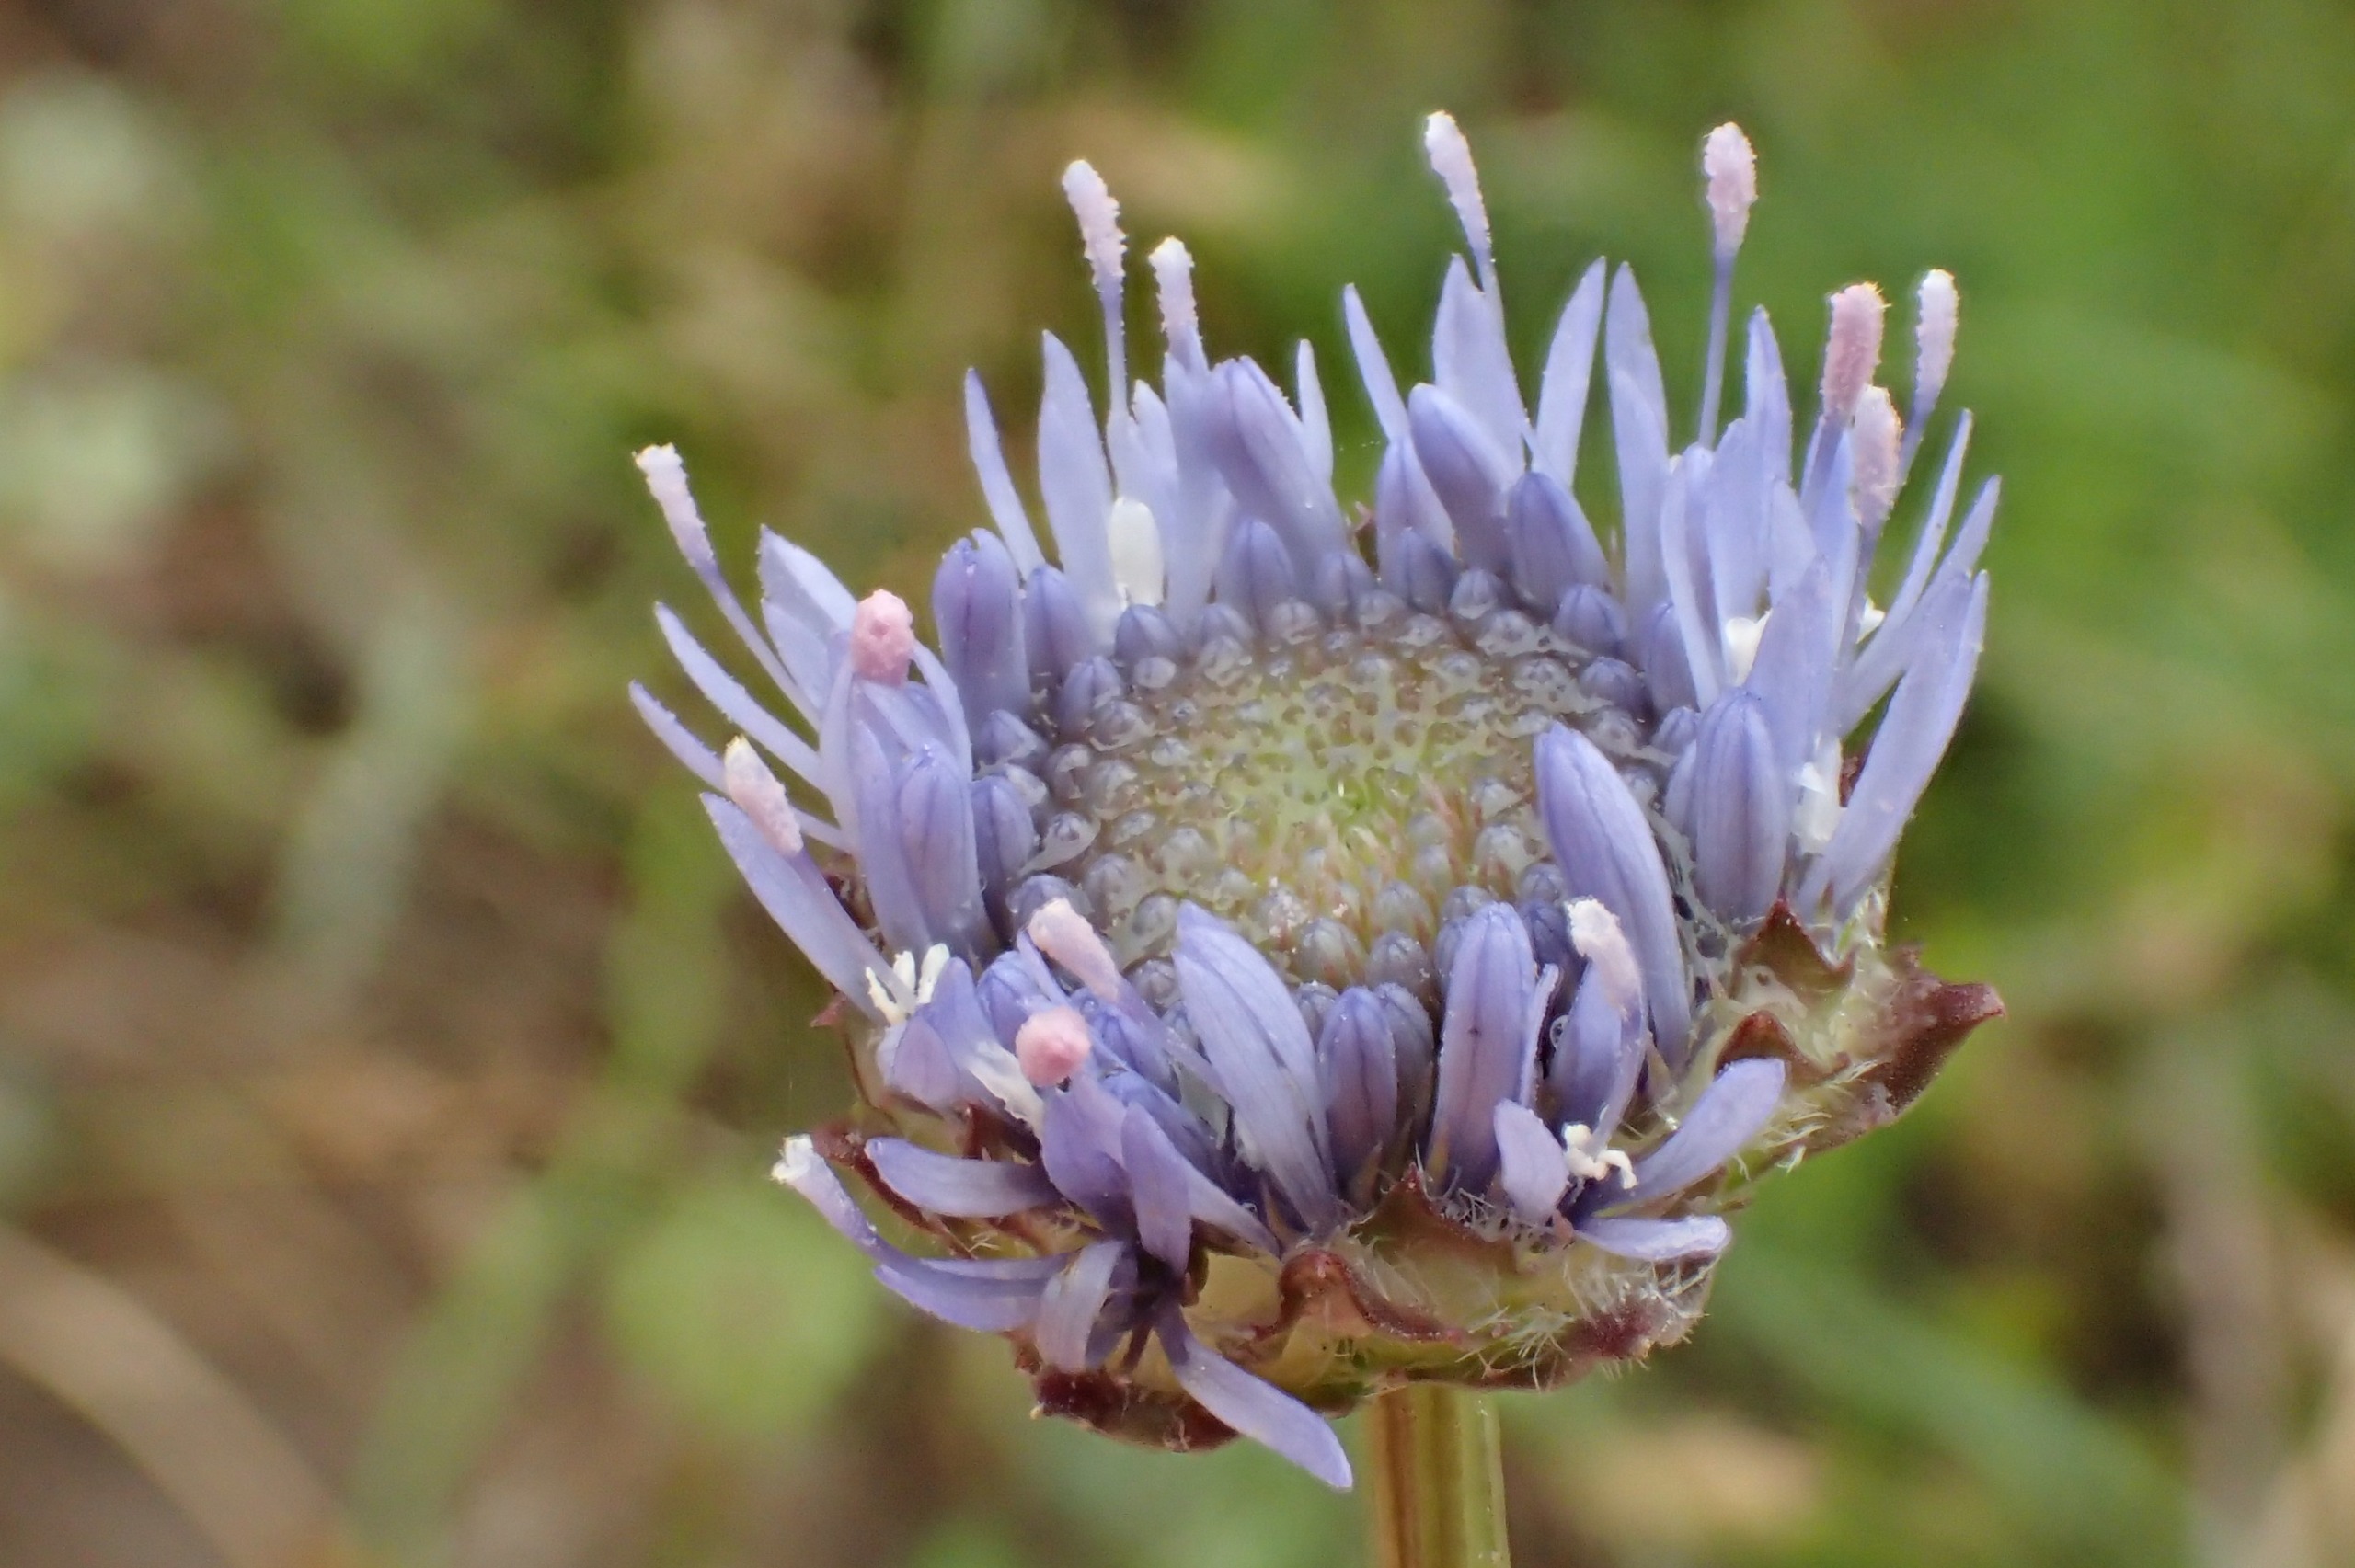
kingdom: Plantae
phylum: Tracheophyta
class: Magnoliopsida
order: Asterales
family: Campanulaceae
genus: Jasione
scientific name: Jasione montana
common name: Blåmunke
